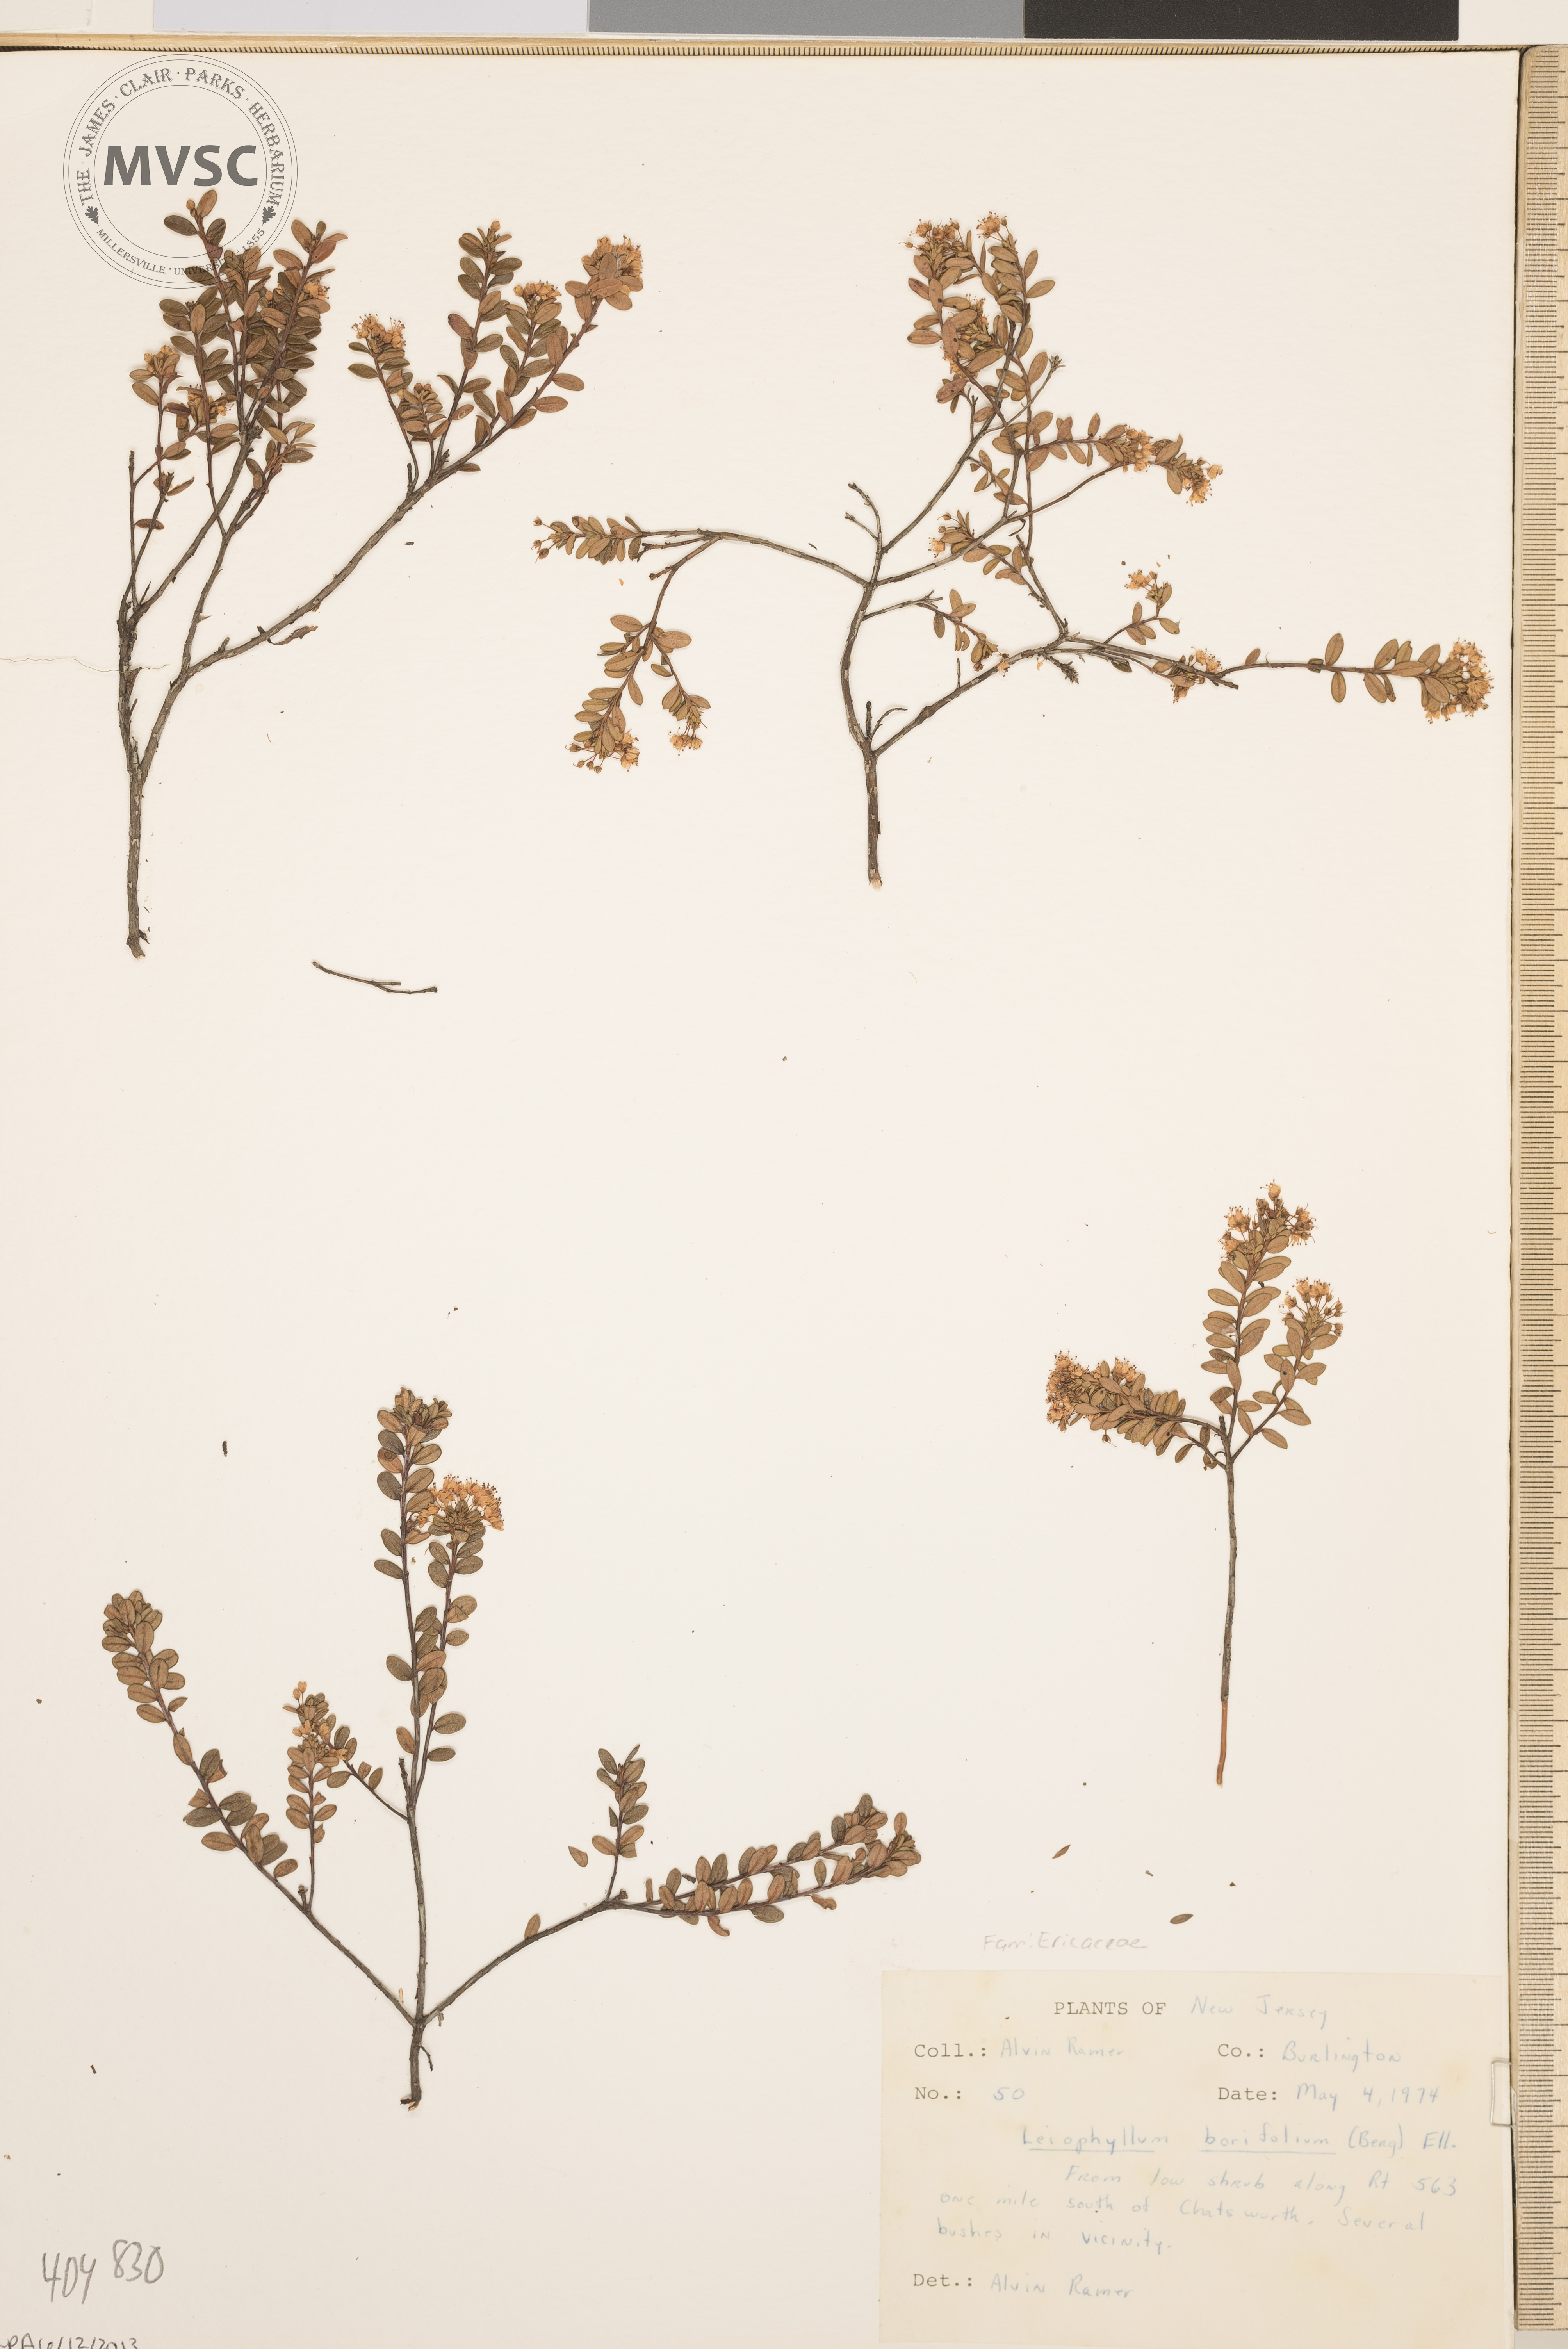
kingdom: Plantae
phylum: Tracheophyta
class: Magnoliopsida
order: Ericales
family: Ericaceae
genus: Kalmia
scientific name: Kalmia buxifolia
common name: Sandmyrtle
